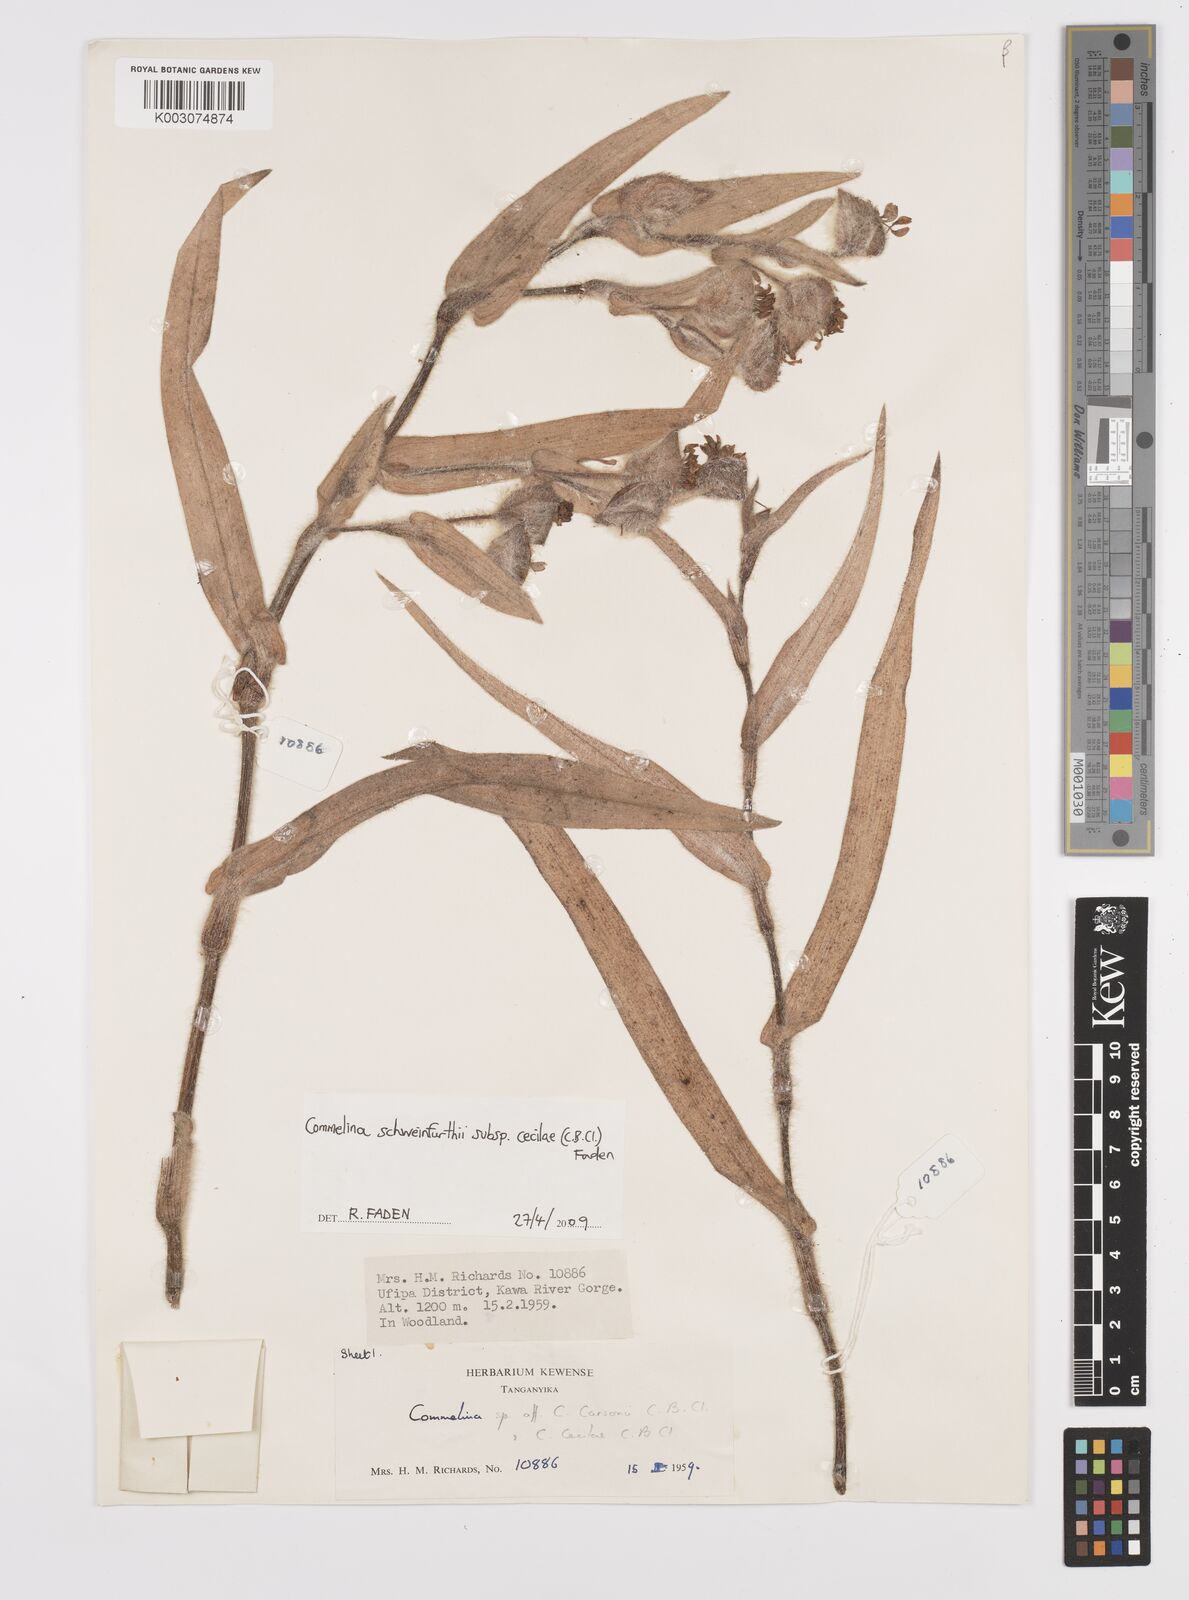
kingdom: Plantae
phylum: Tracheophyta
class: Liliopsida
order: Commelinales
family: Commelinaceae
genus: Commelina
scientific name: Commelina cecilae
